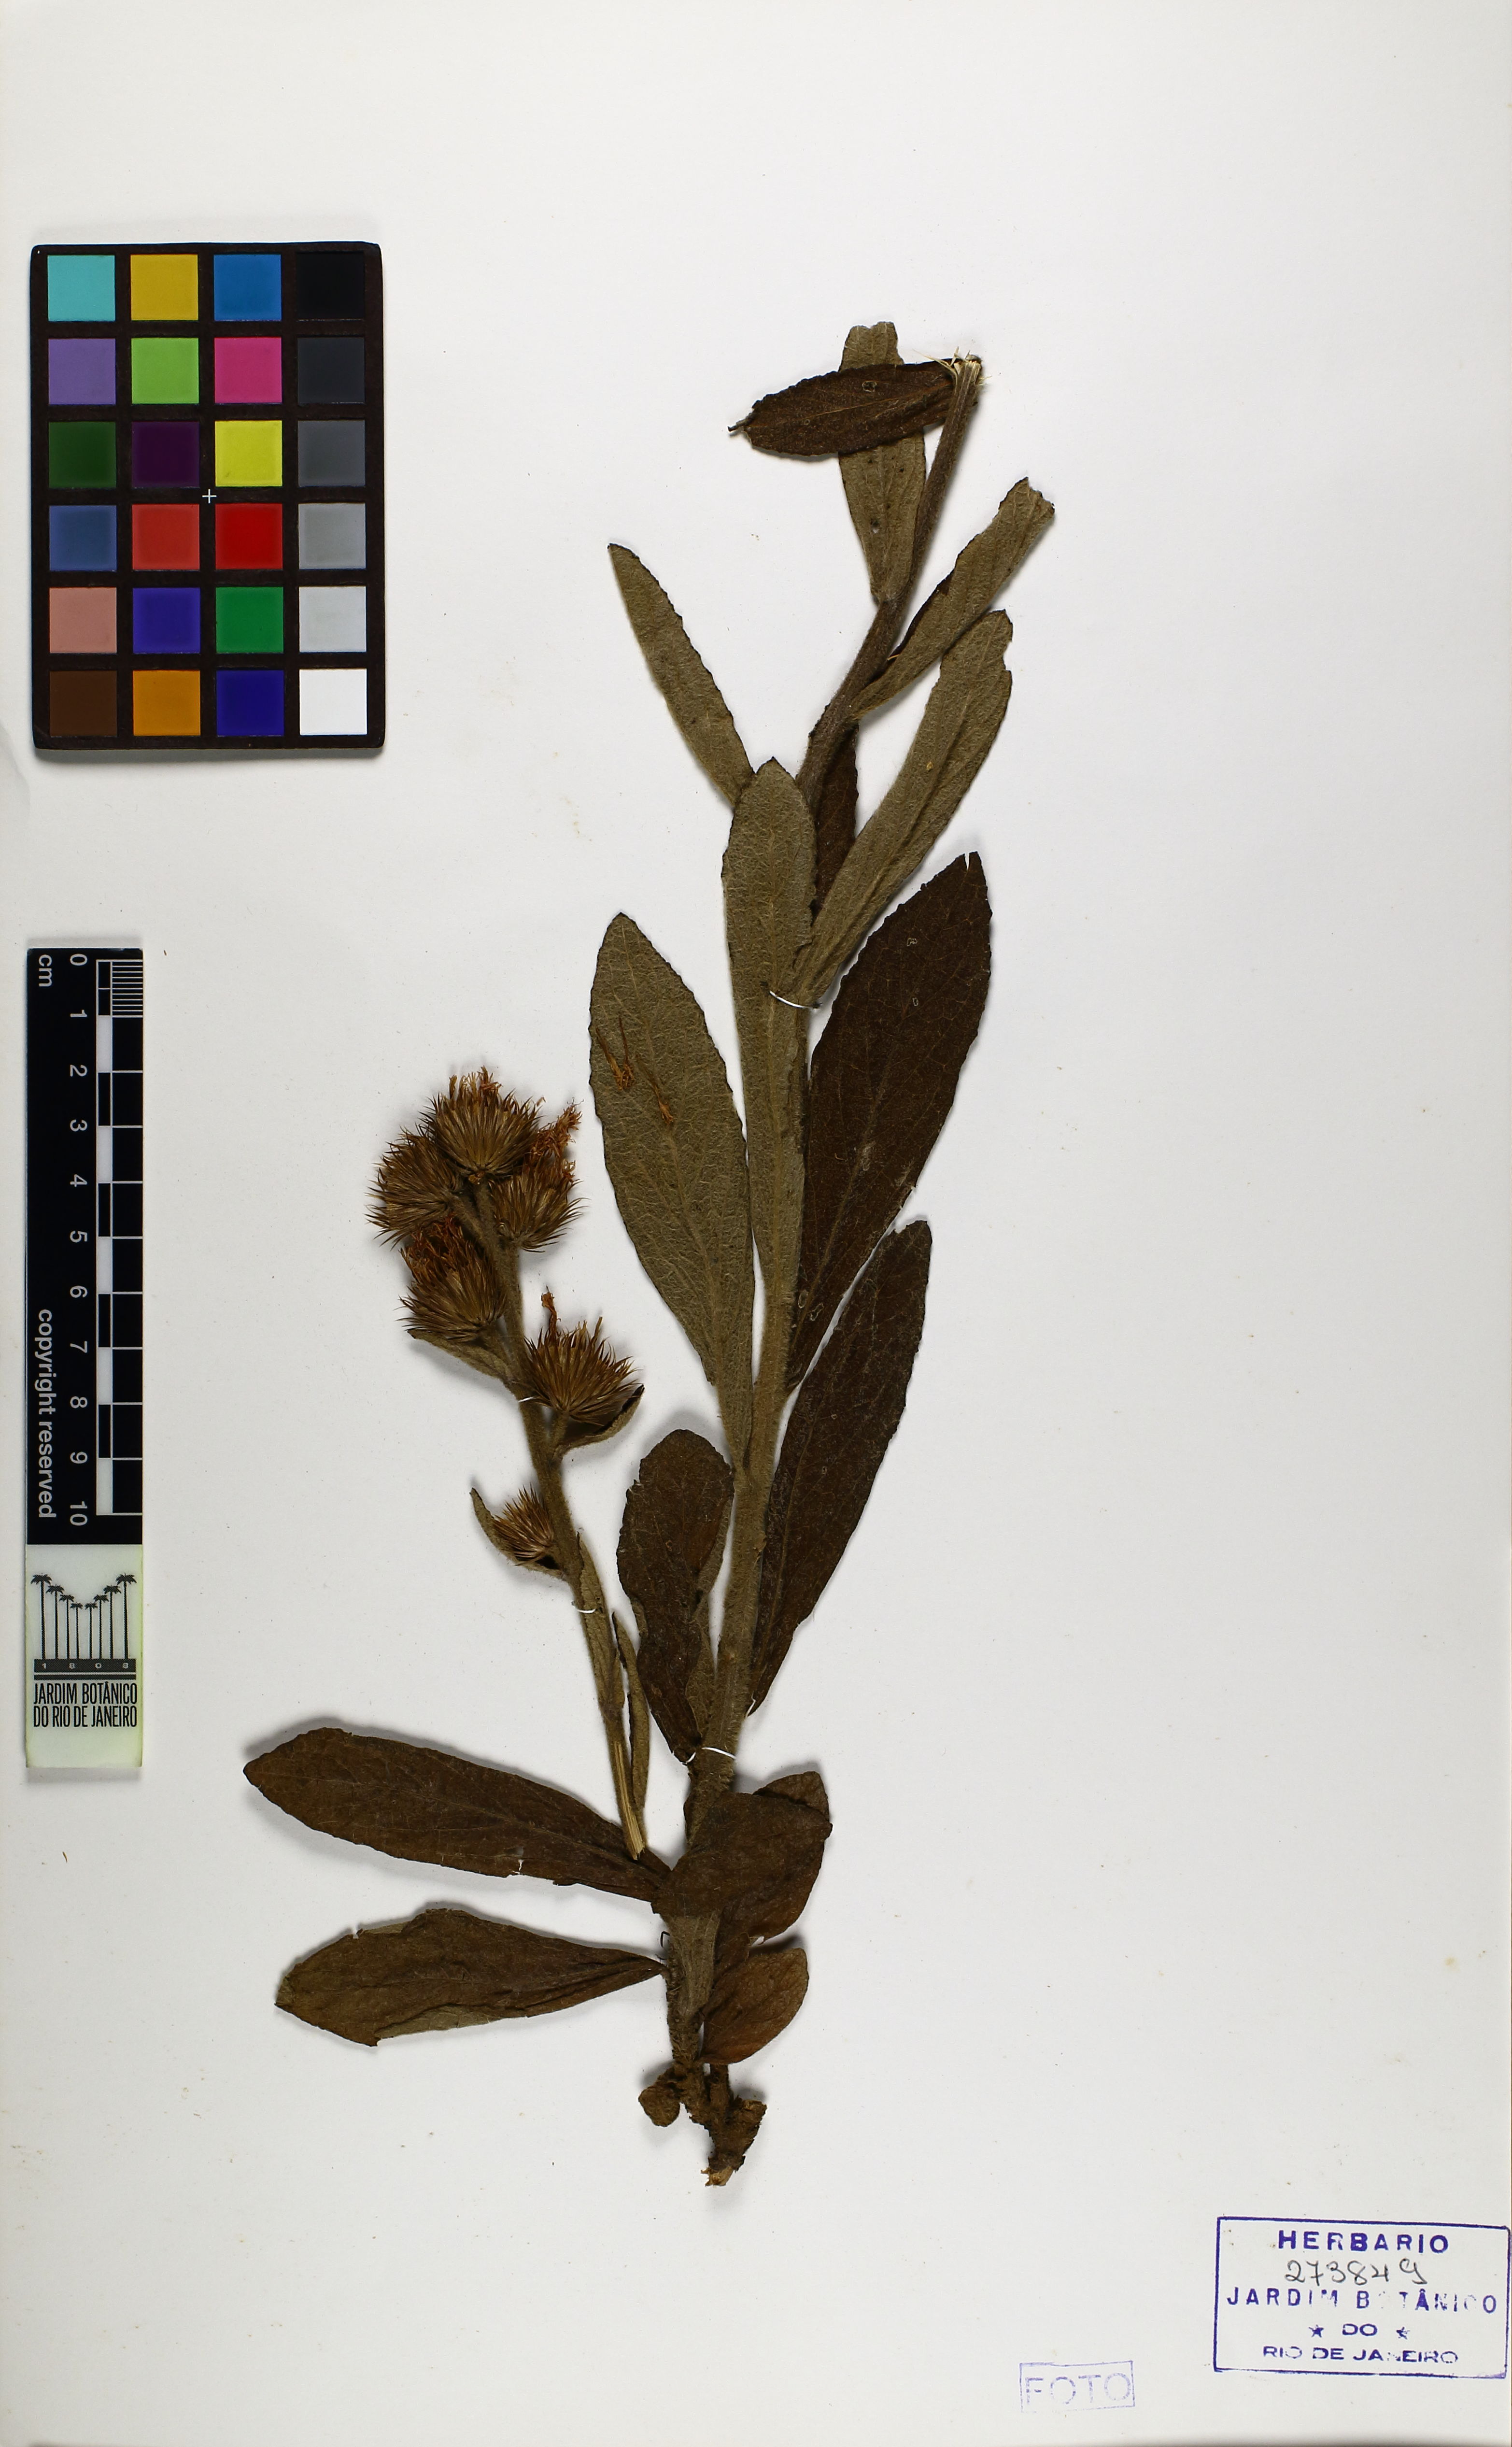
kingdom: Plantae
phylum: Tracheophyta
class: Magnoliopsida
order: Asterales
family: Asteraceae
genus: Lessingianthus
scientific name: Lessingianthus irwinii
